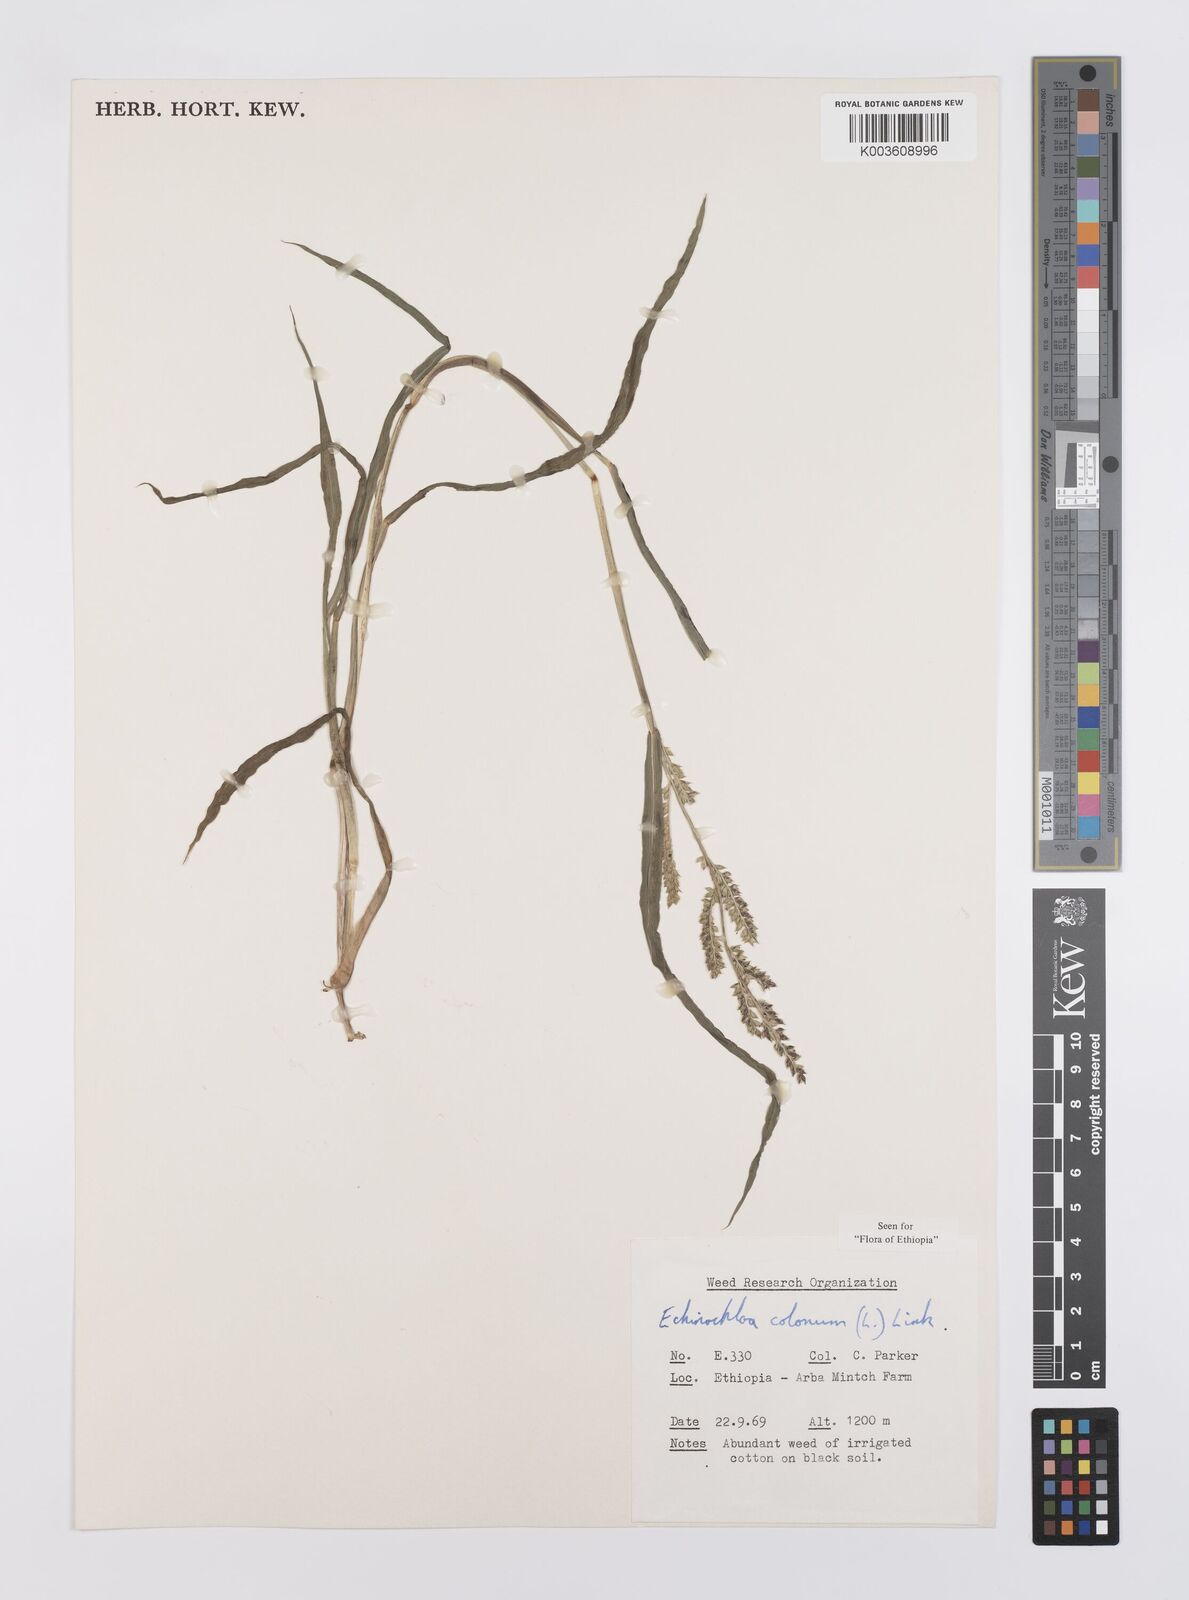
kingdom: Plantae
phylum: Tracheophyta
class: Liliopsida
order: Poales
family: Poaceae
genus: Echinochloa
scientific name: Echinochloa colonum
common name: Jungle rice
